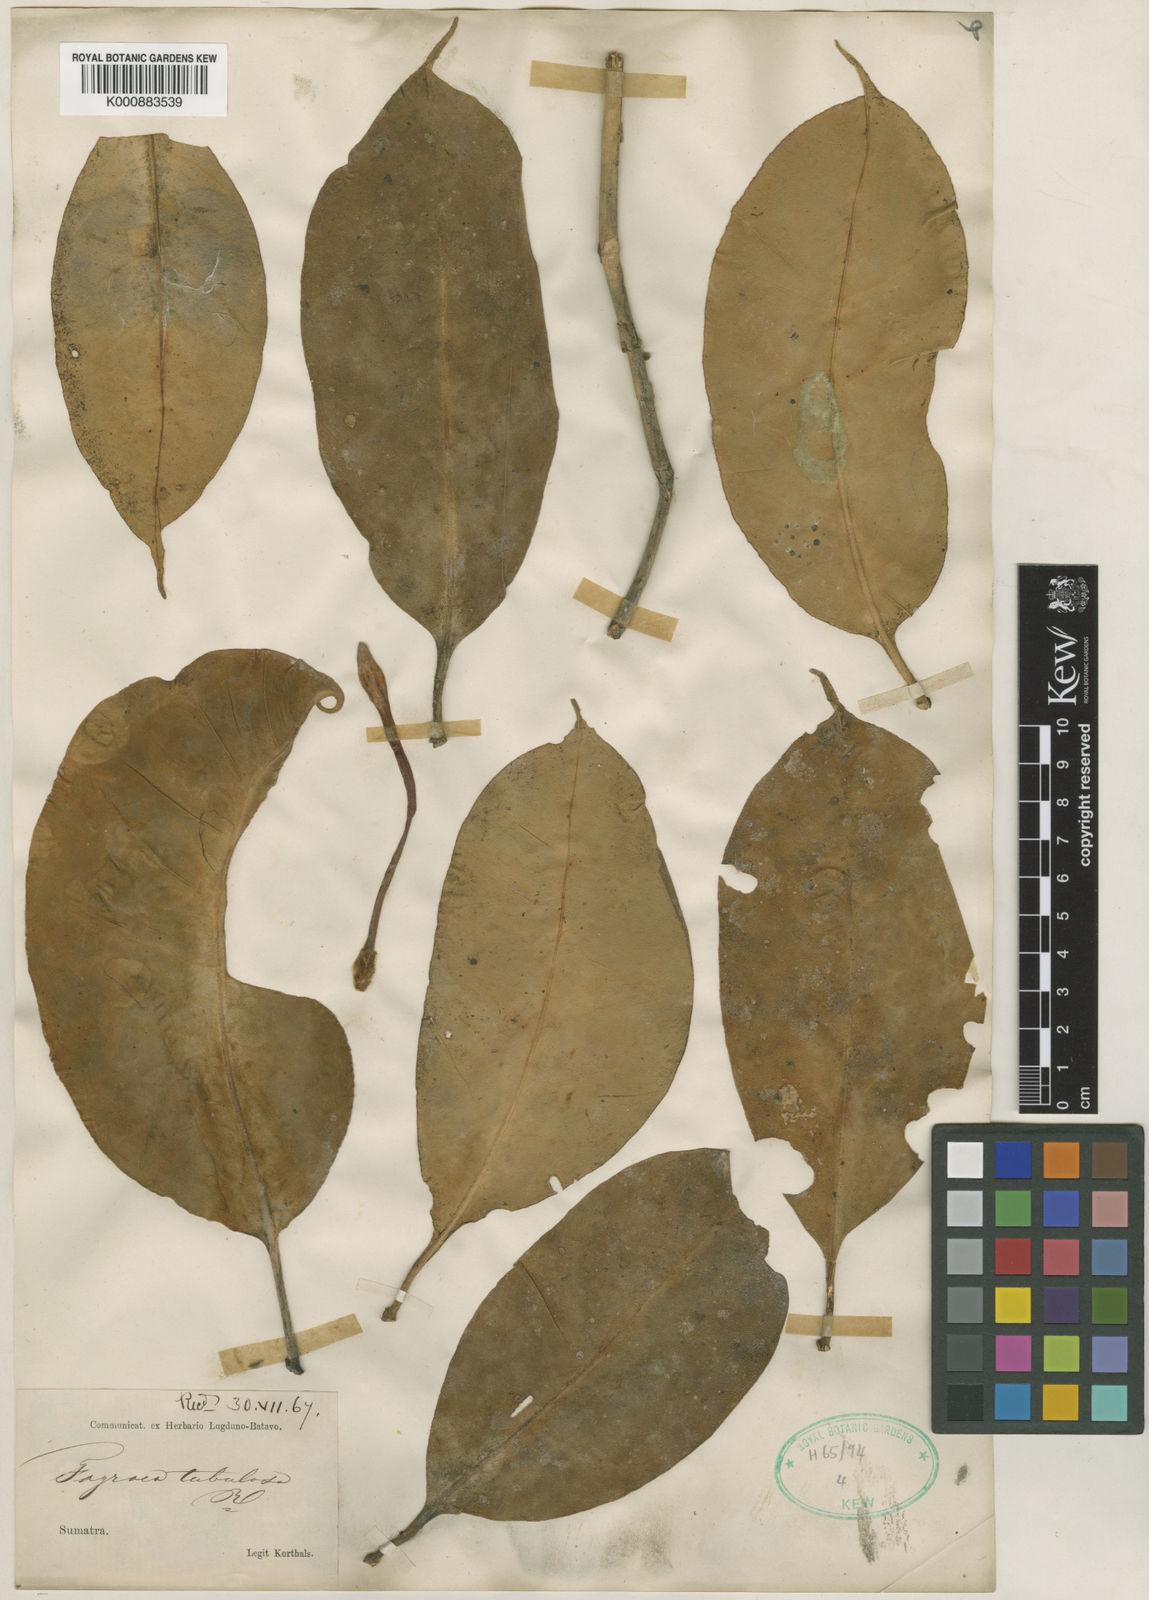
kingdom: Plantae
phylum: Tracheophyta
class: Magnoliopsida
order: Gentianales
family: Gentianaceae
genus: Fagraea
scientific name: Fagraea tubulosa
